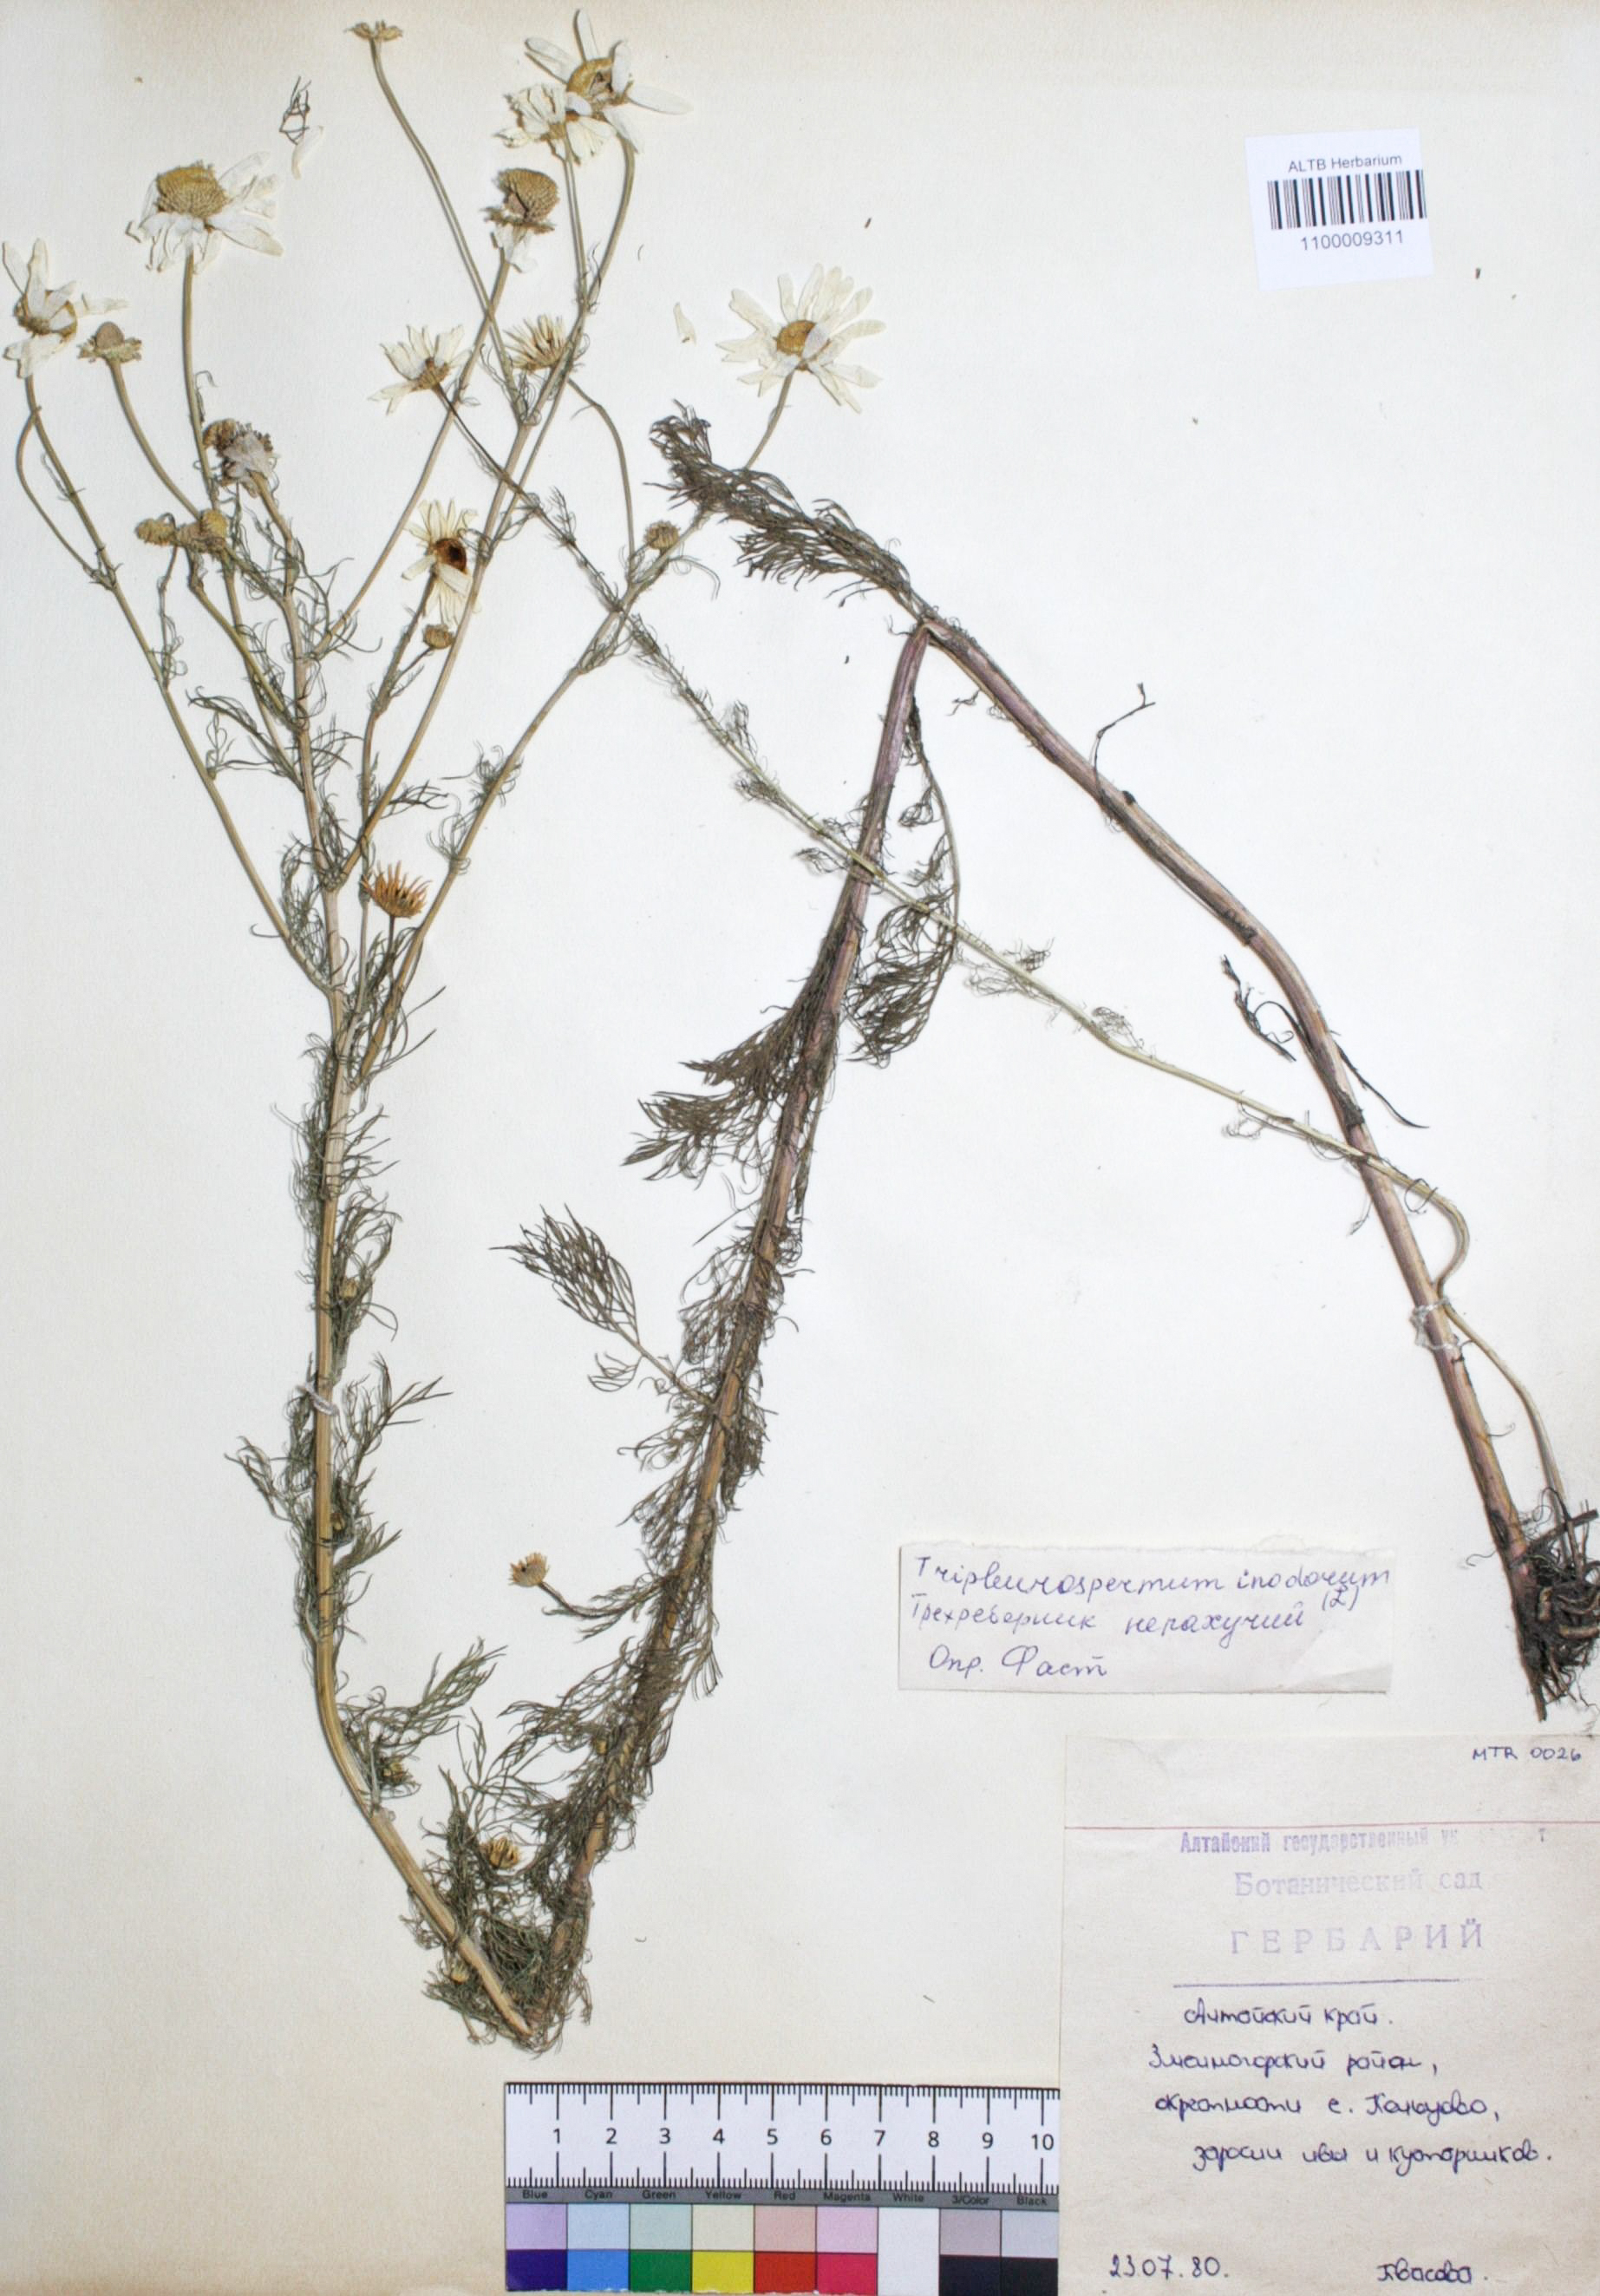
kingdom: Plantae
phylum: Tracheophyta
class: Magnoliopsida
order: Asterales
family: Asteraceae
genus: Tripleurospermum
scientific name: Tripleurospermum inodorum
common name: Scentless mayweed
